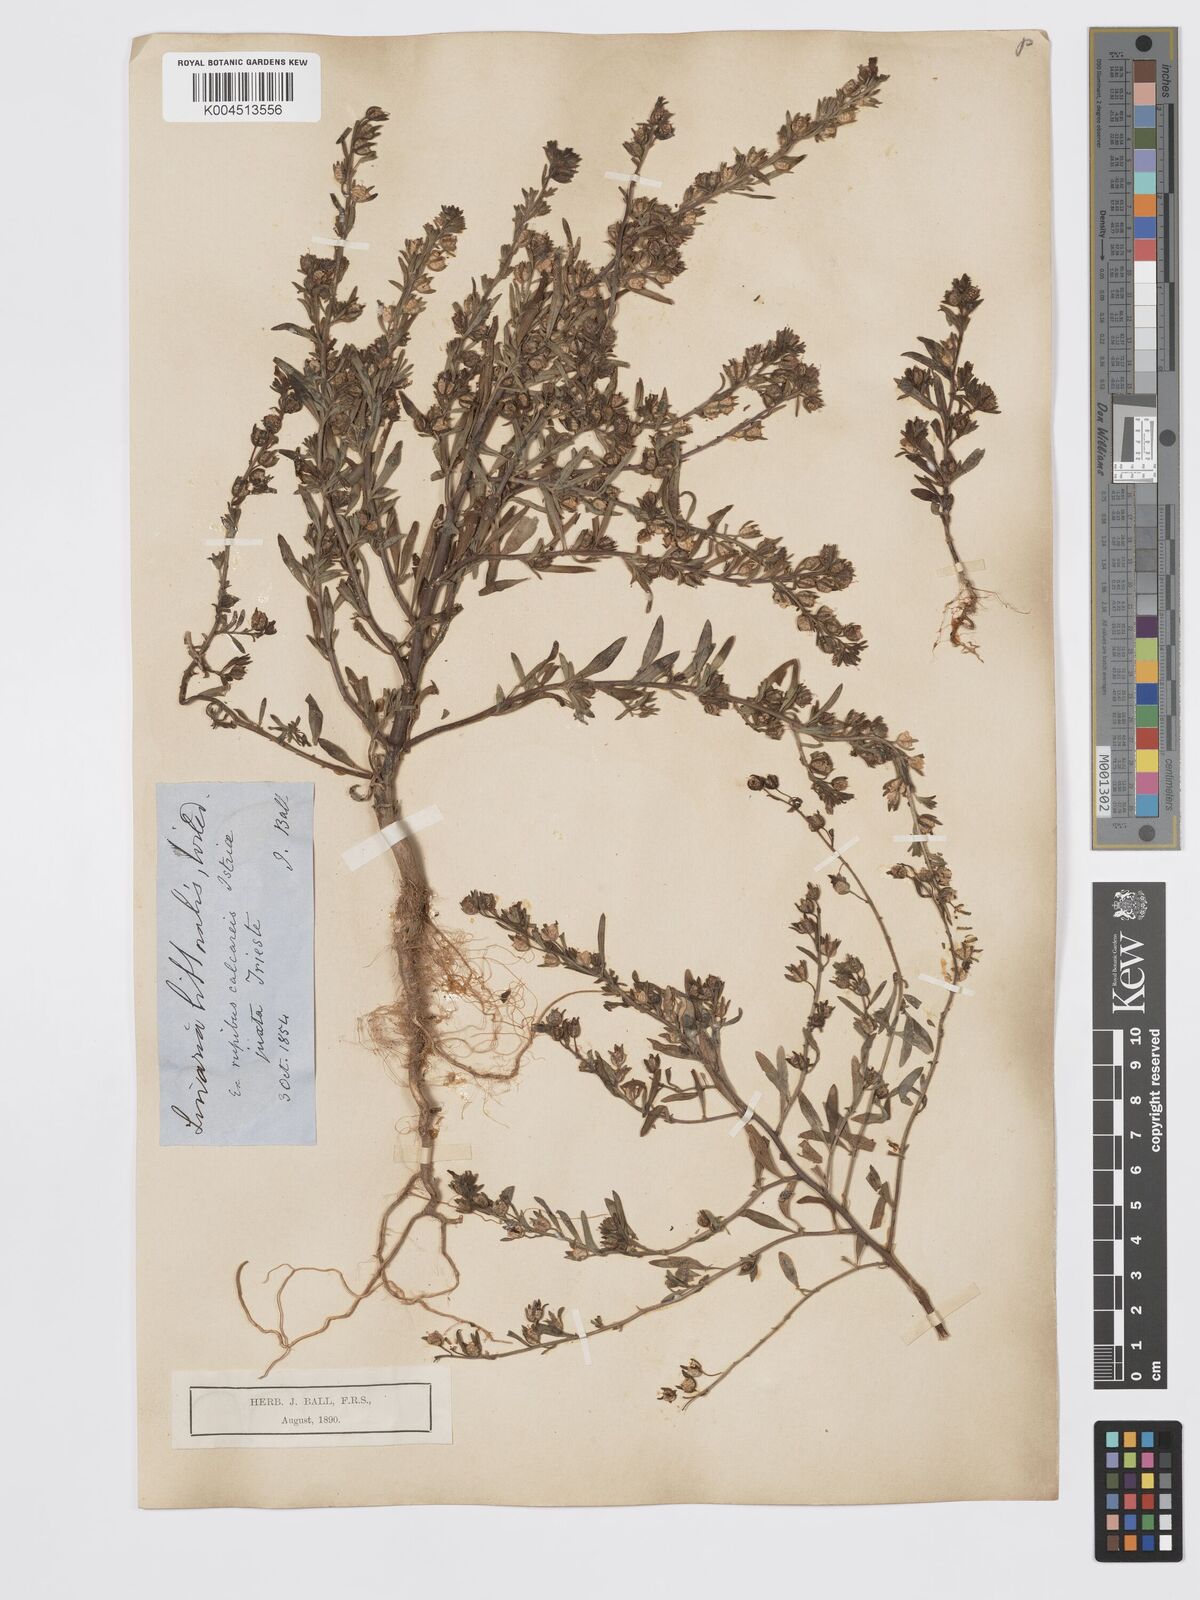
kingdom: Plantae
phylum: Tracheophyta
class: Magnoliopsida
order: Lamiales
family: Plantaginaceae
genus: Chaenorhinum
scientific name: Chaenorhinum minus
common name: Dwarf snapdragon
